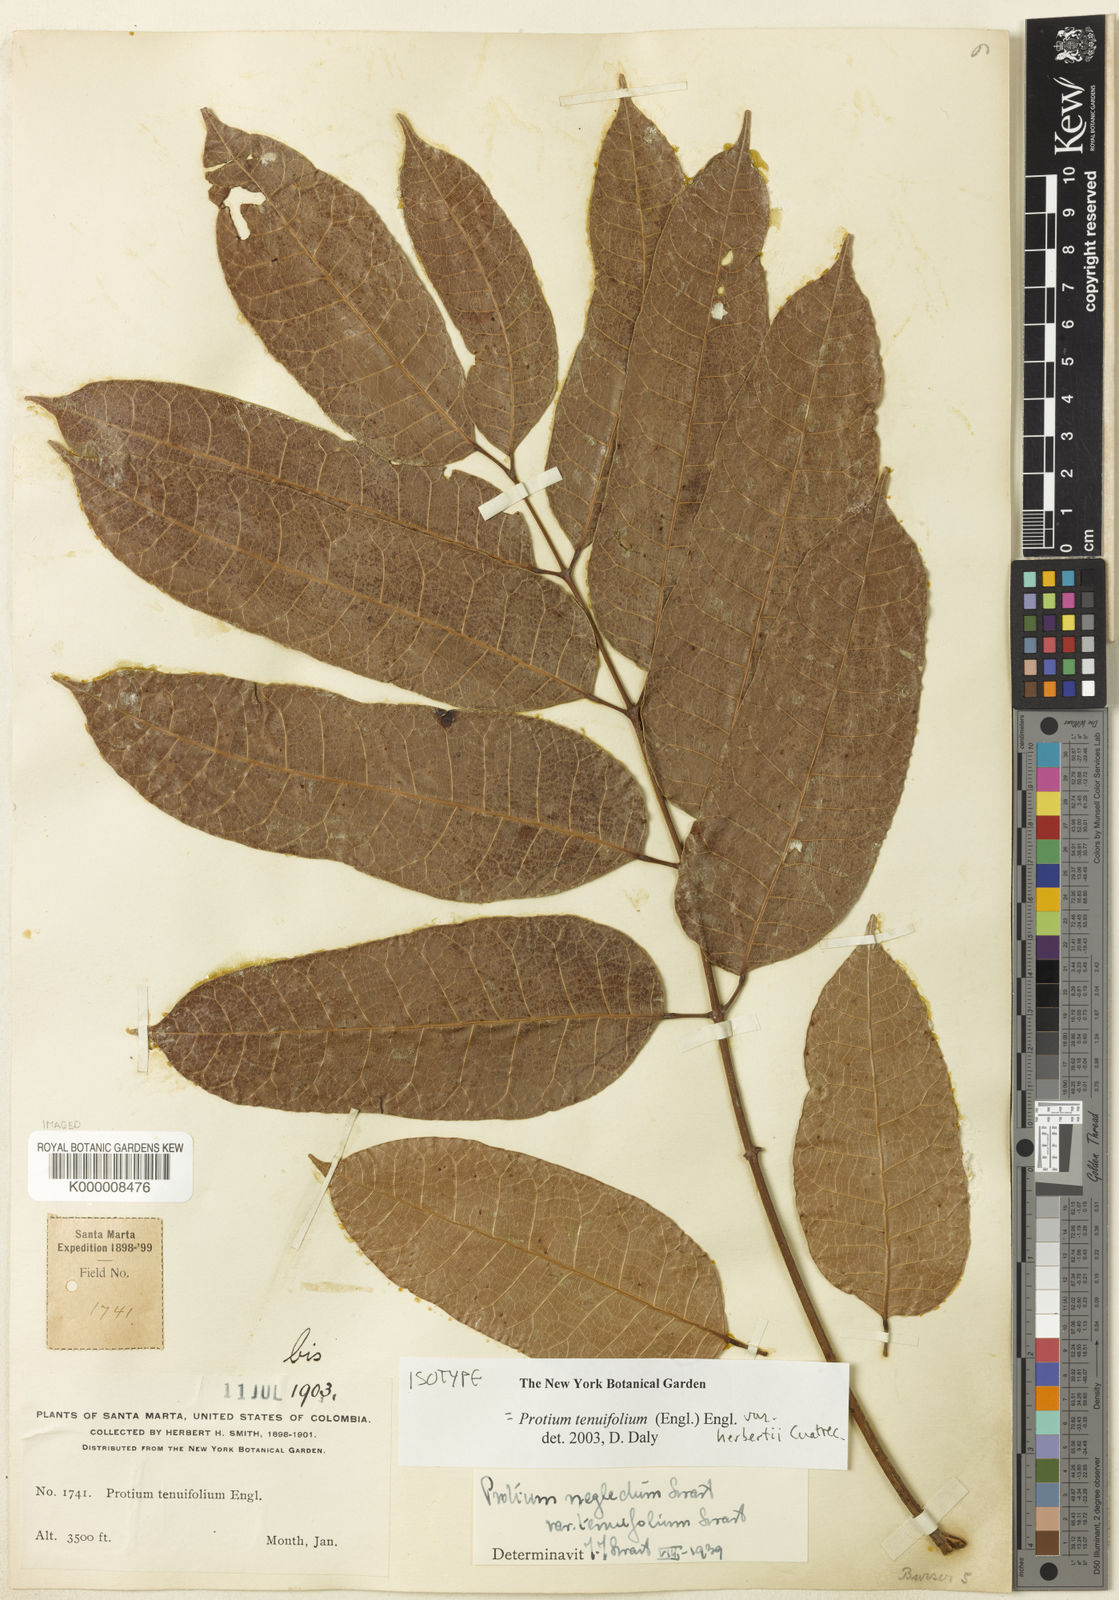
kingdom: Plantae
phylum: Tracheophyta
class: Magnoliopsida
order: Sapindales
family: Burseraceae
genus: Protium
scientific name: Protium herbertii
